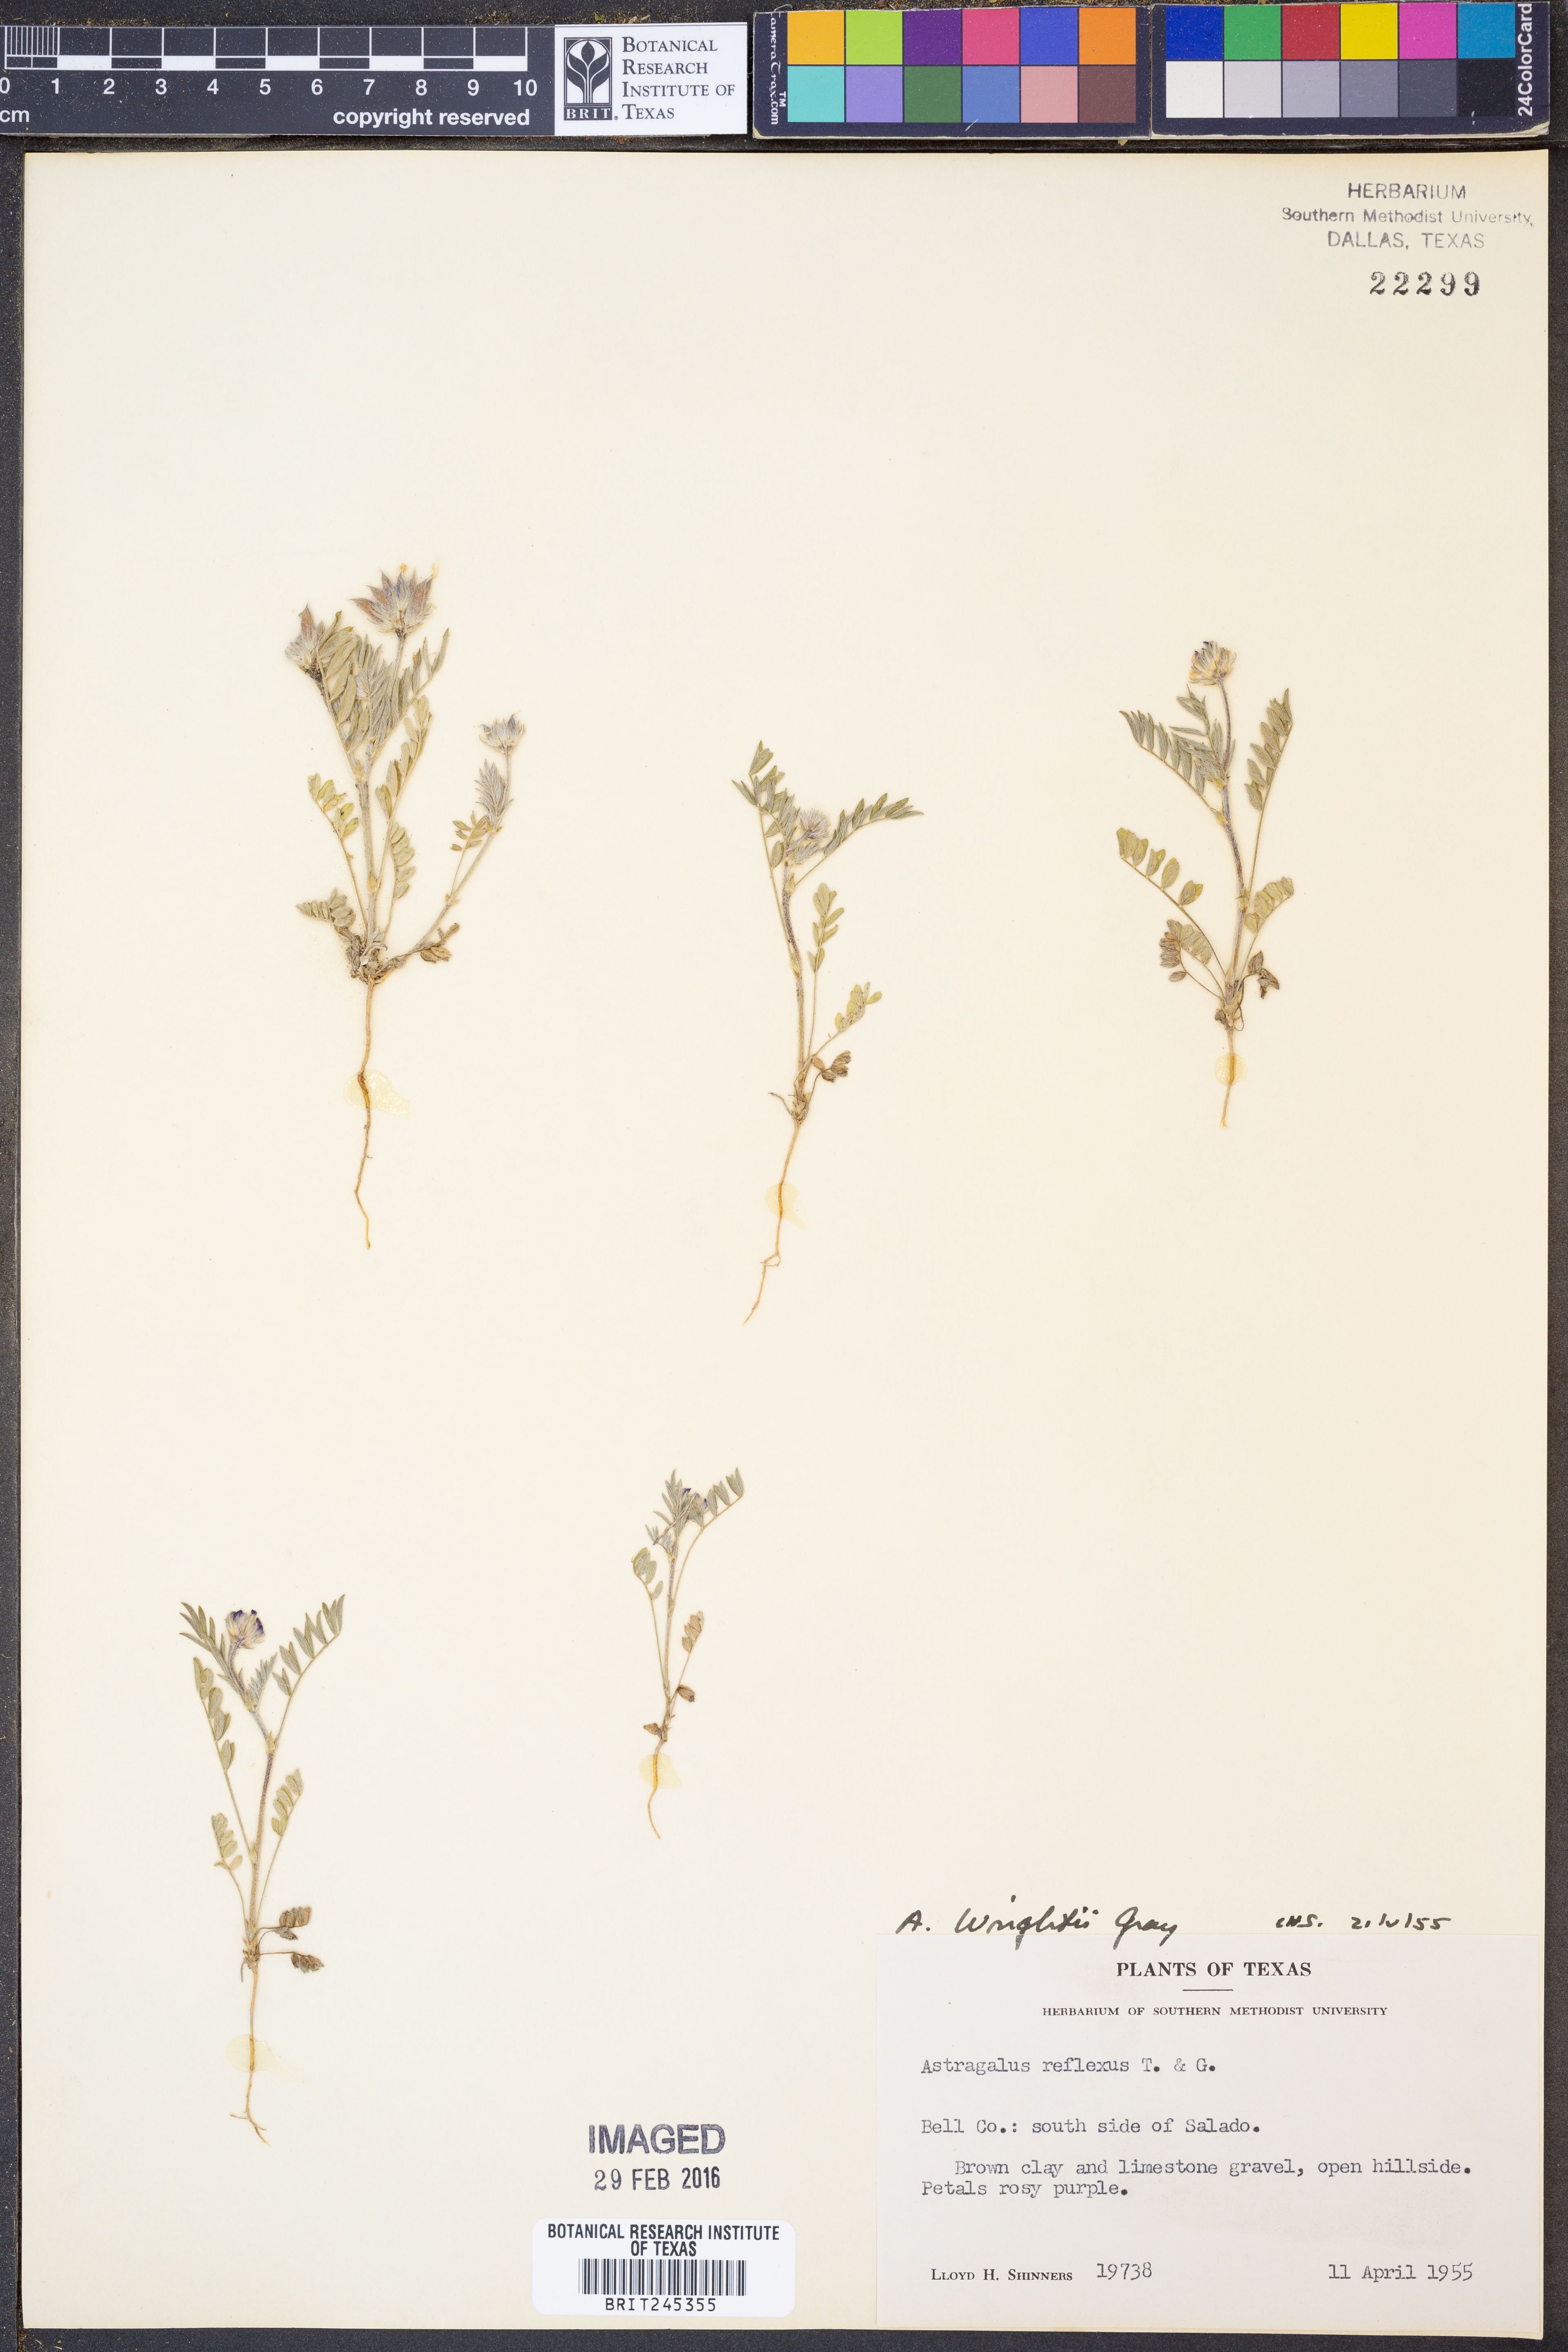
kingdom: Plantae
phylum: Tracheophyta
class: Magnoliopsida
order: Fabales
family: Fabaceae
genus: Astragalus
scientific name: Astragalus wrightii
